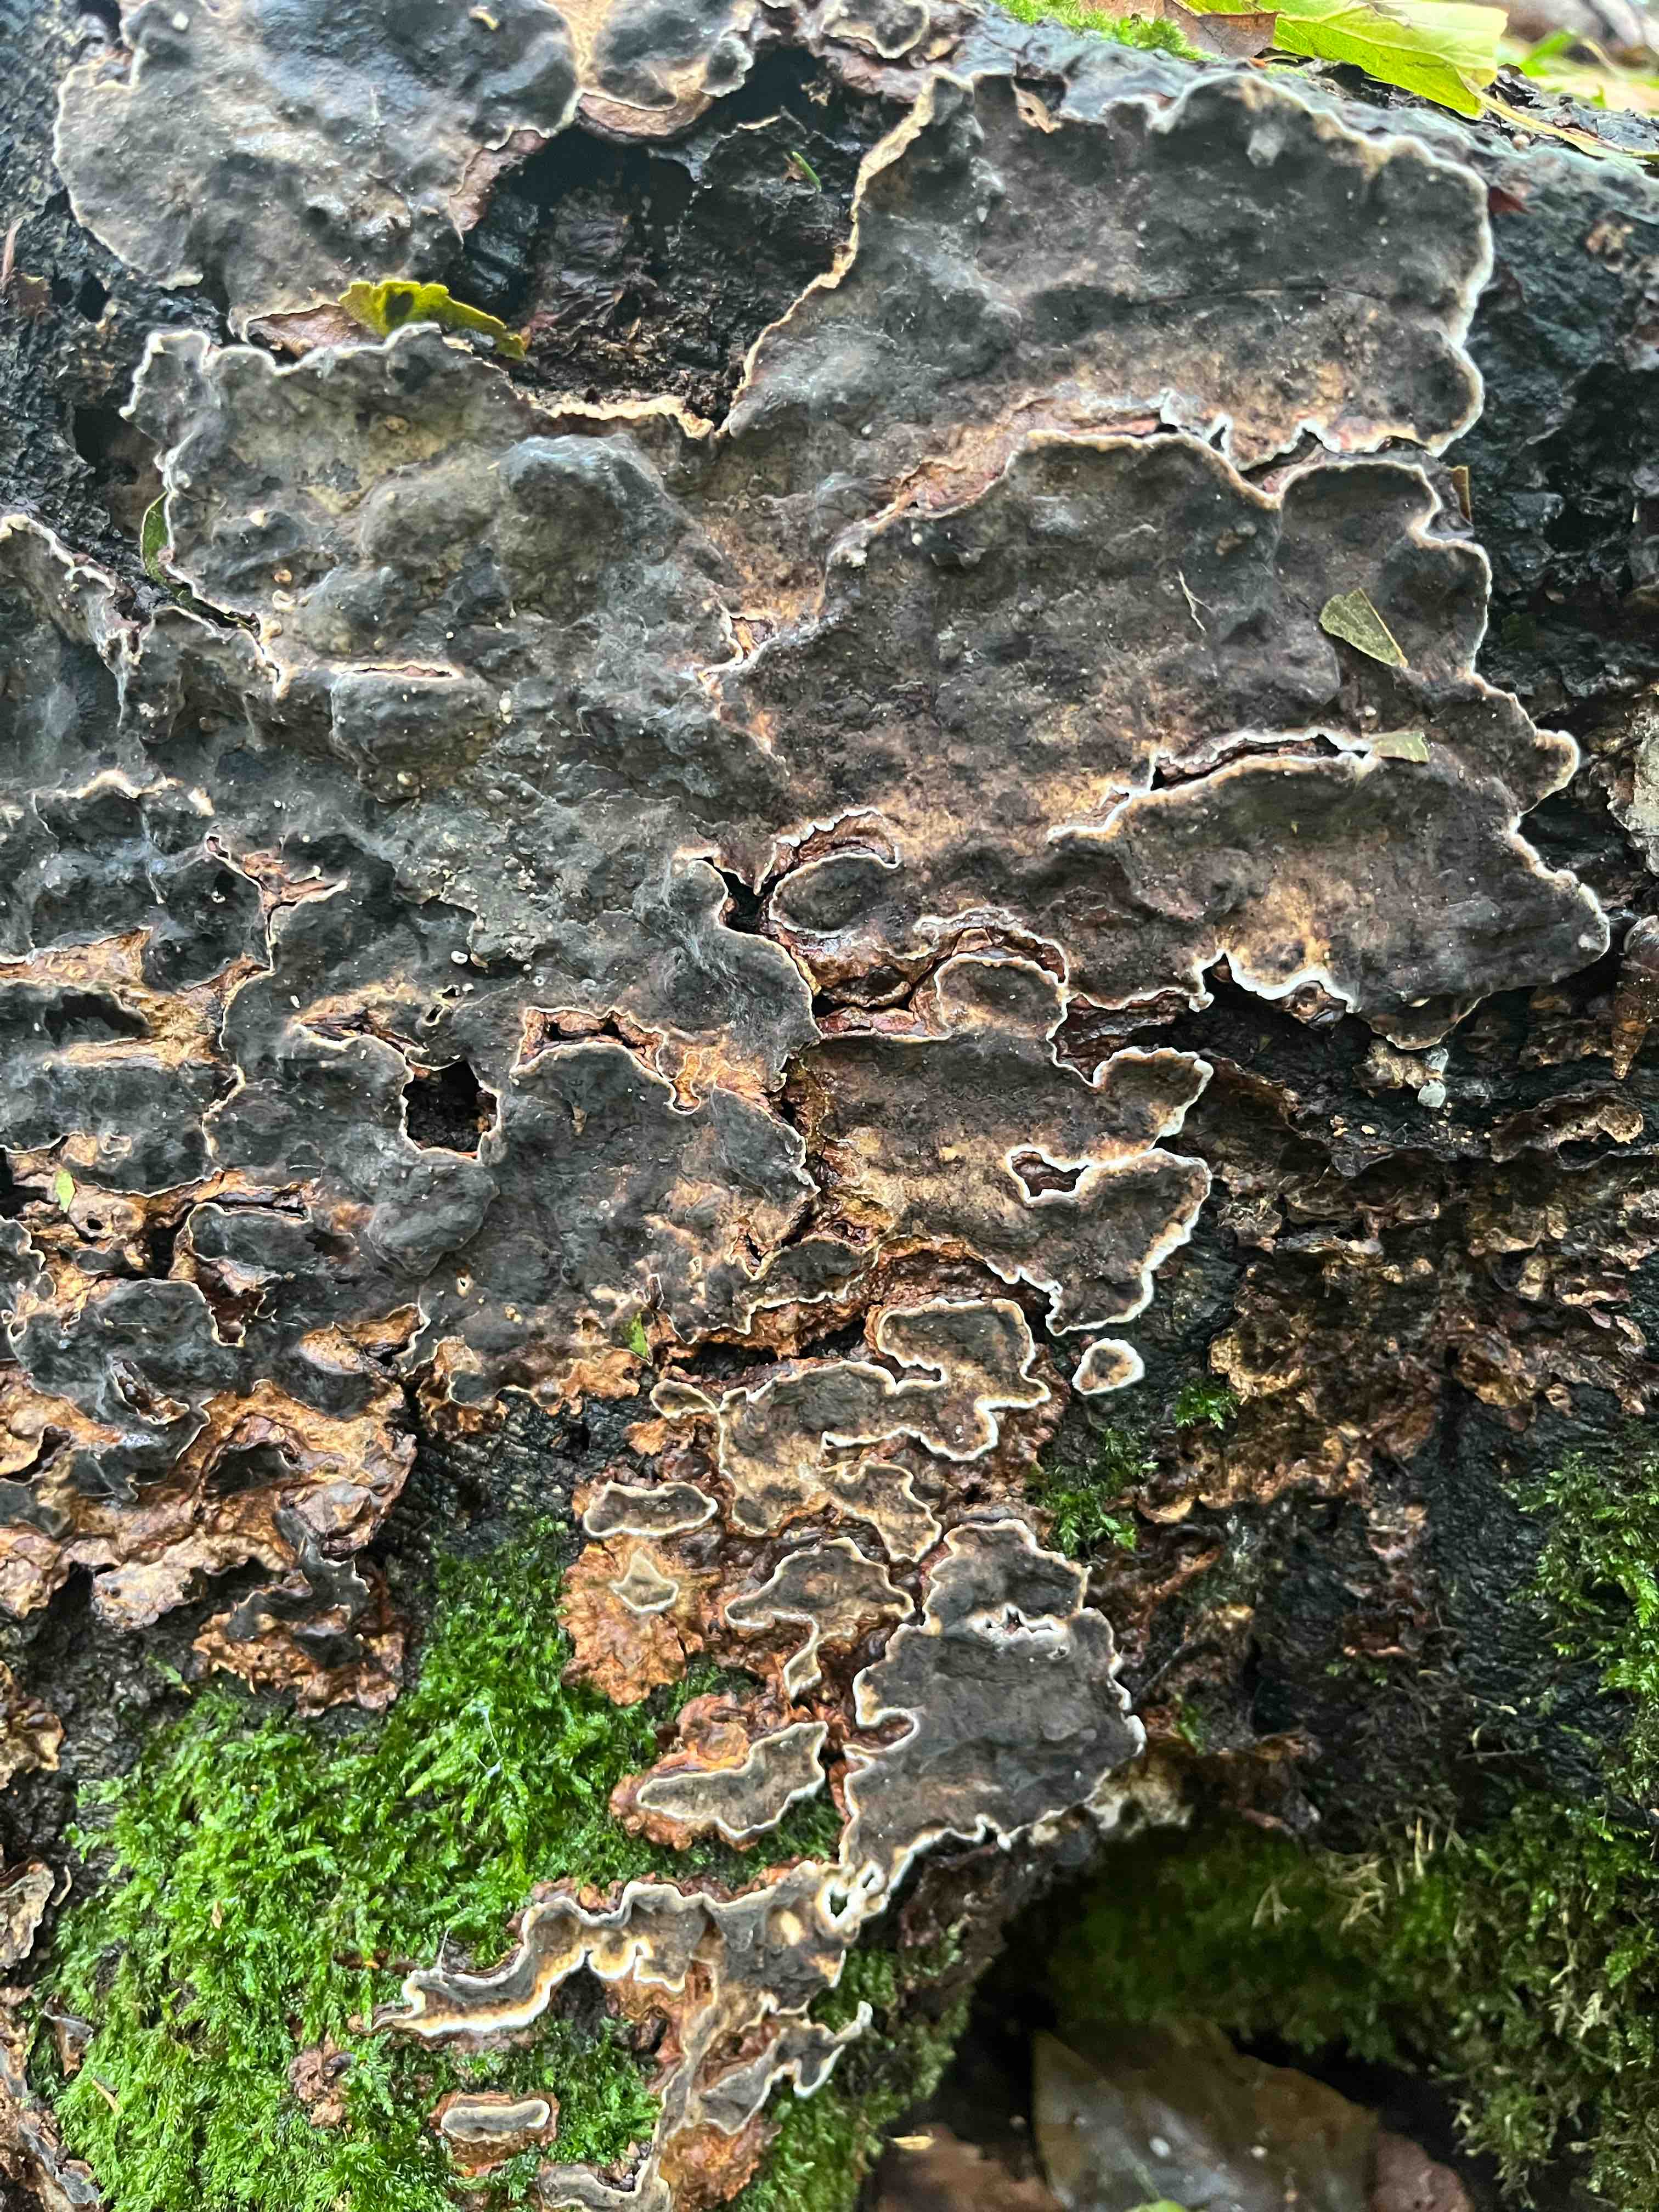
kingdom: Fungi
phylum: Basidiomycota
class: Agaricomycetes
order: Russulales
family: Stereaceae
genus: Stereum
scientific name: Stereum rugosum
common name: rynket lædersvamp
